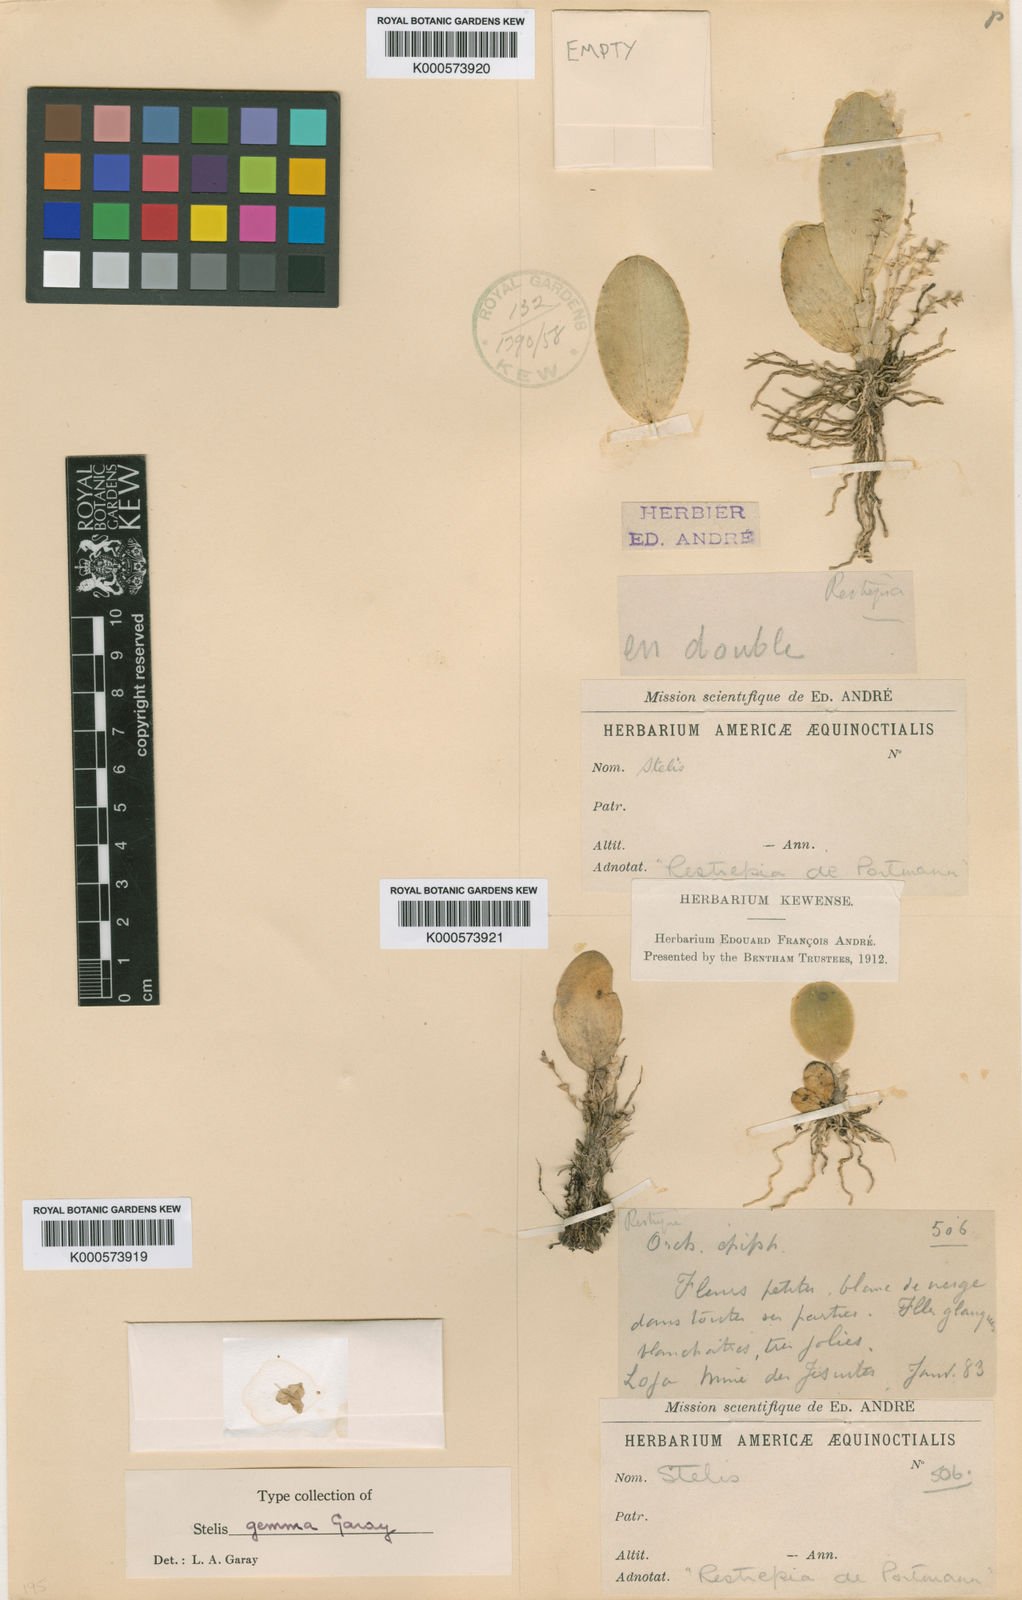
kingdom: Plantae
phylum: Tracheophyta
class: Liliopsida
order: Asparagales
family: Orchidaceae
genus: Stelis
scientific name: Stelis gemma
